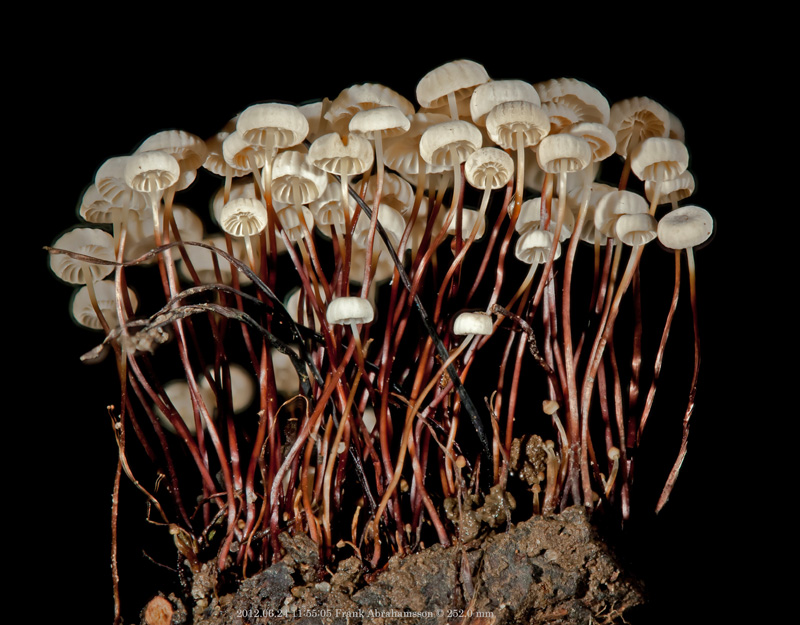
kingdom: Fungi
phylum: Basidiomycota
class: Agaricomycetes
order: Agaricales
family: Marasmiaceae
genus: Marasmius
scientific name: Marasmius rotula
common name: hjul-bruskhat
